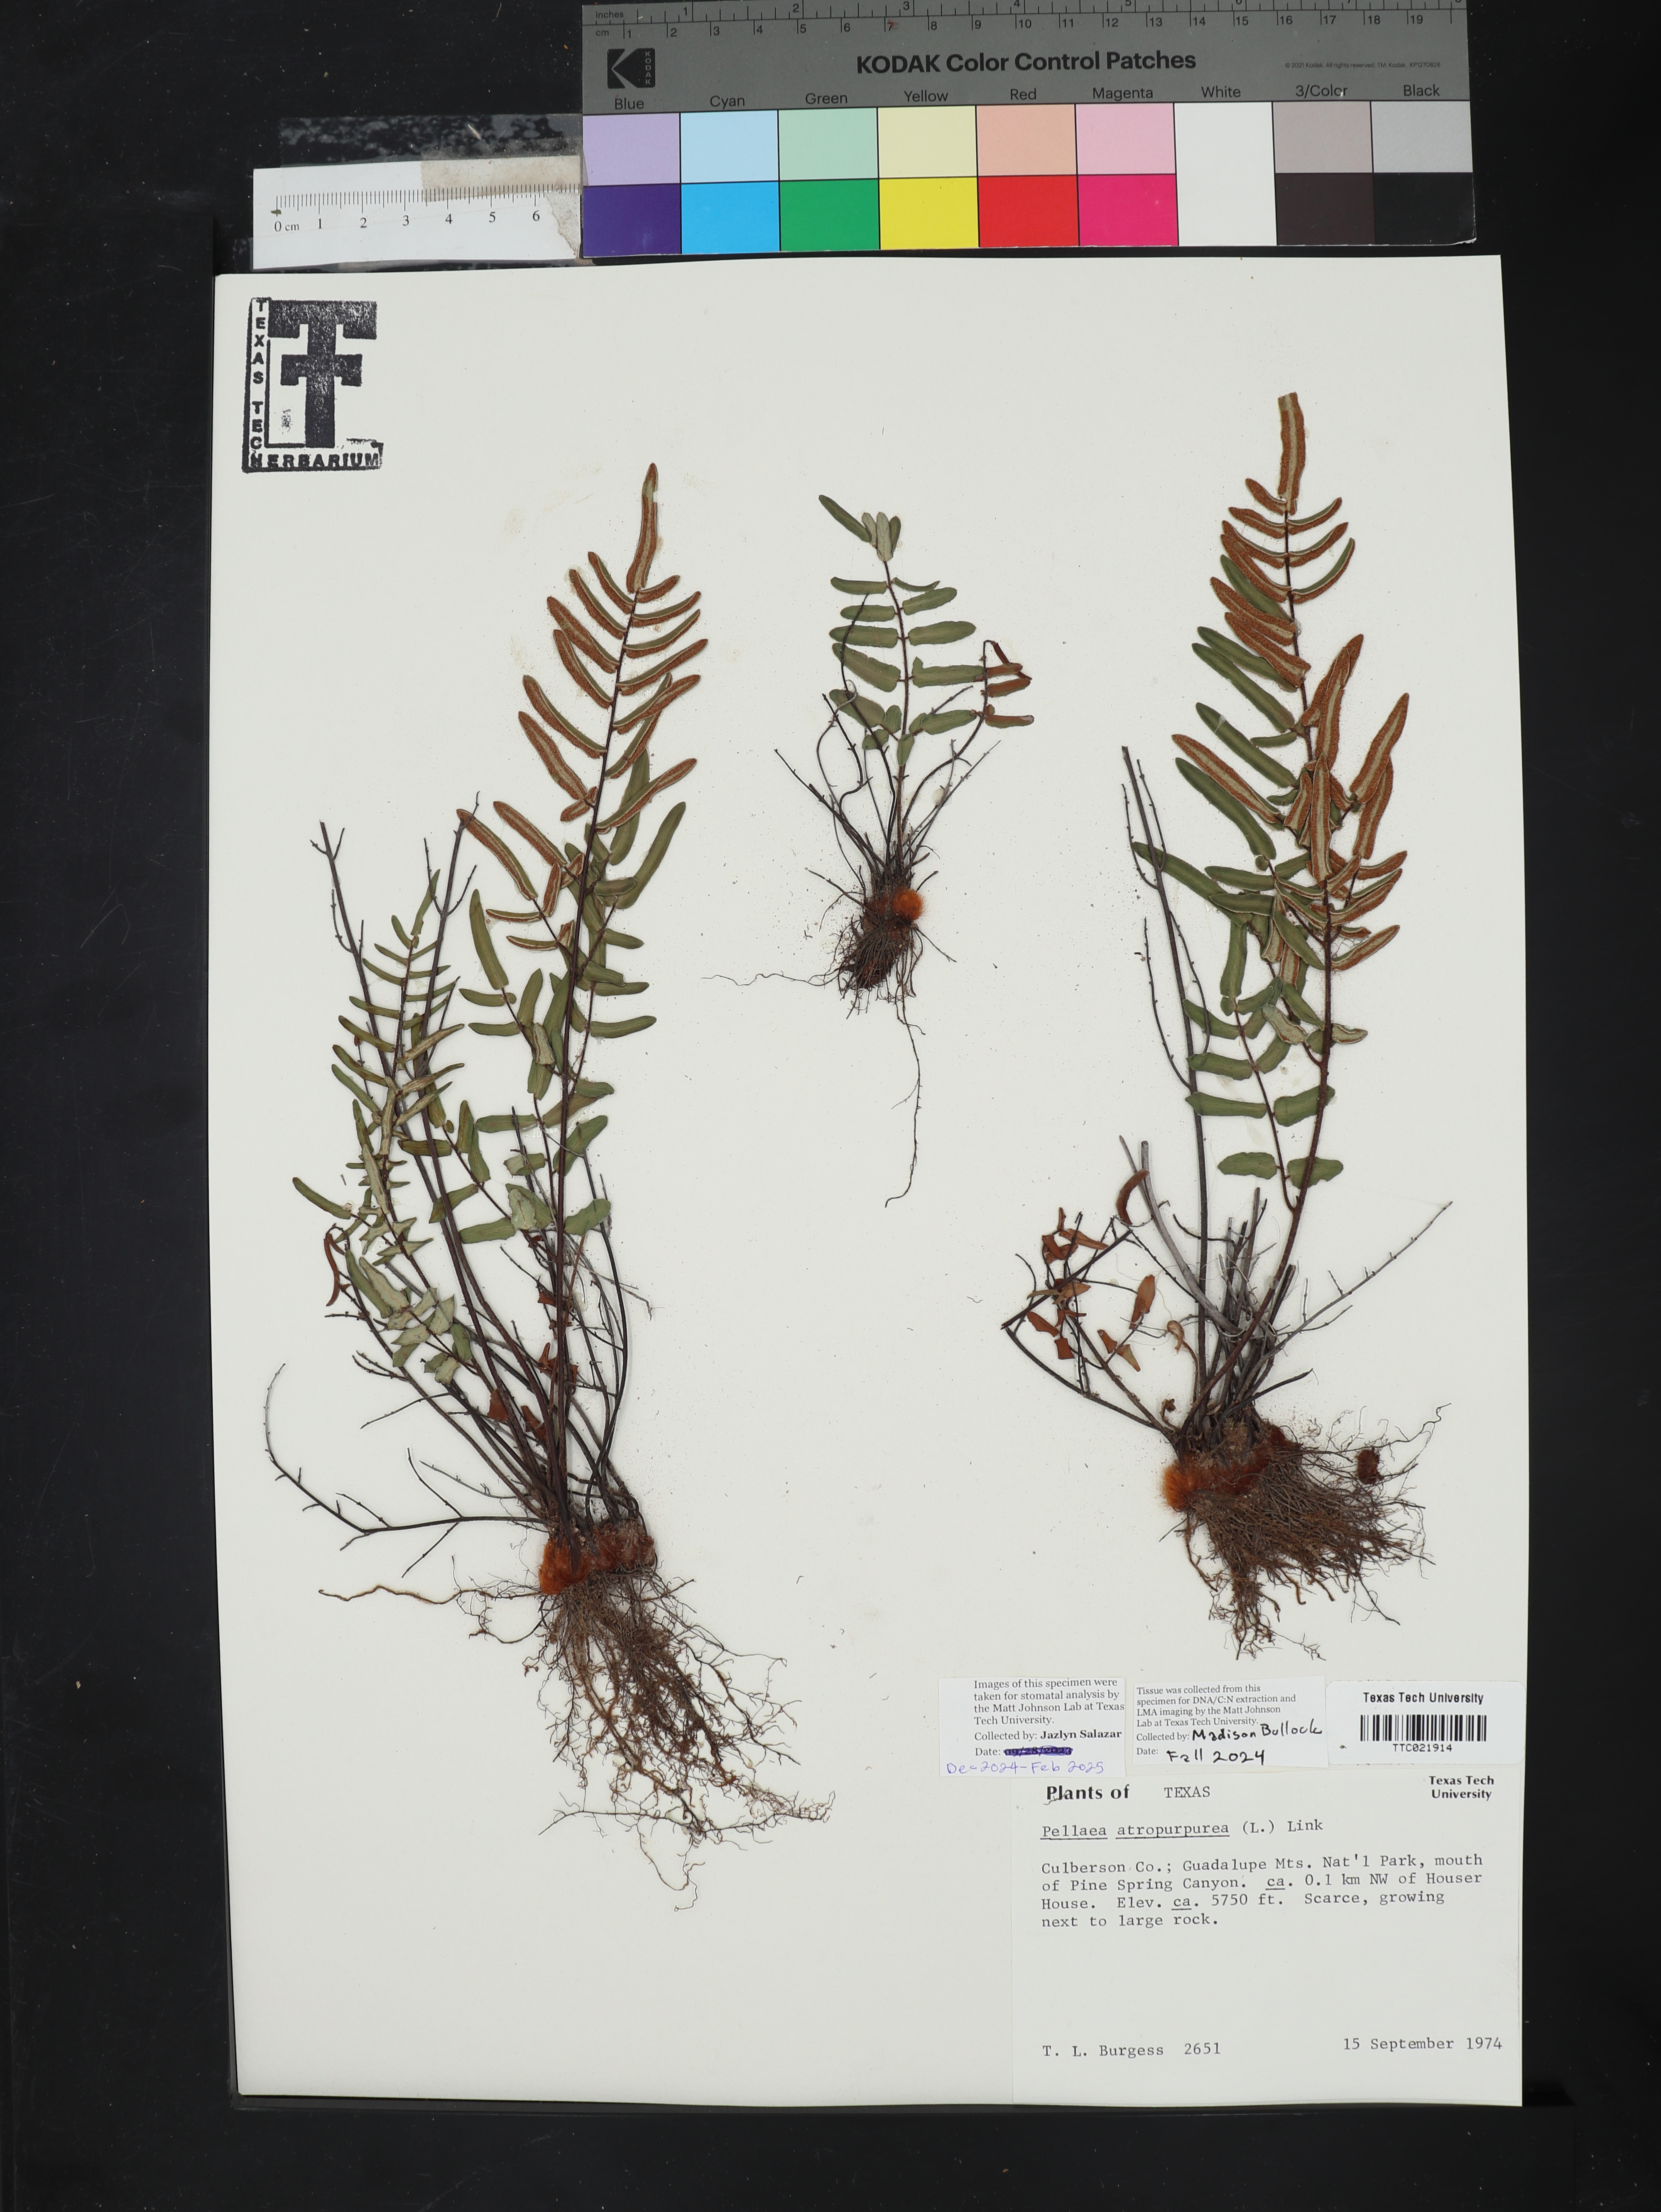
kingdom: Plantae
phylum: Tracheophyta
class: Polypodiopsida
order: Polypodiales
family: Pteridaceae
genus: Pellaea
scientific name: Pellaea atropurpurea
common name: Hairy cliffbrake
